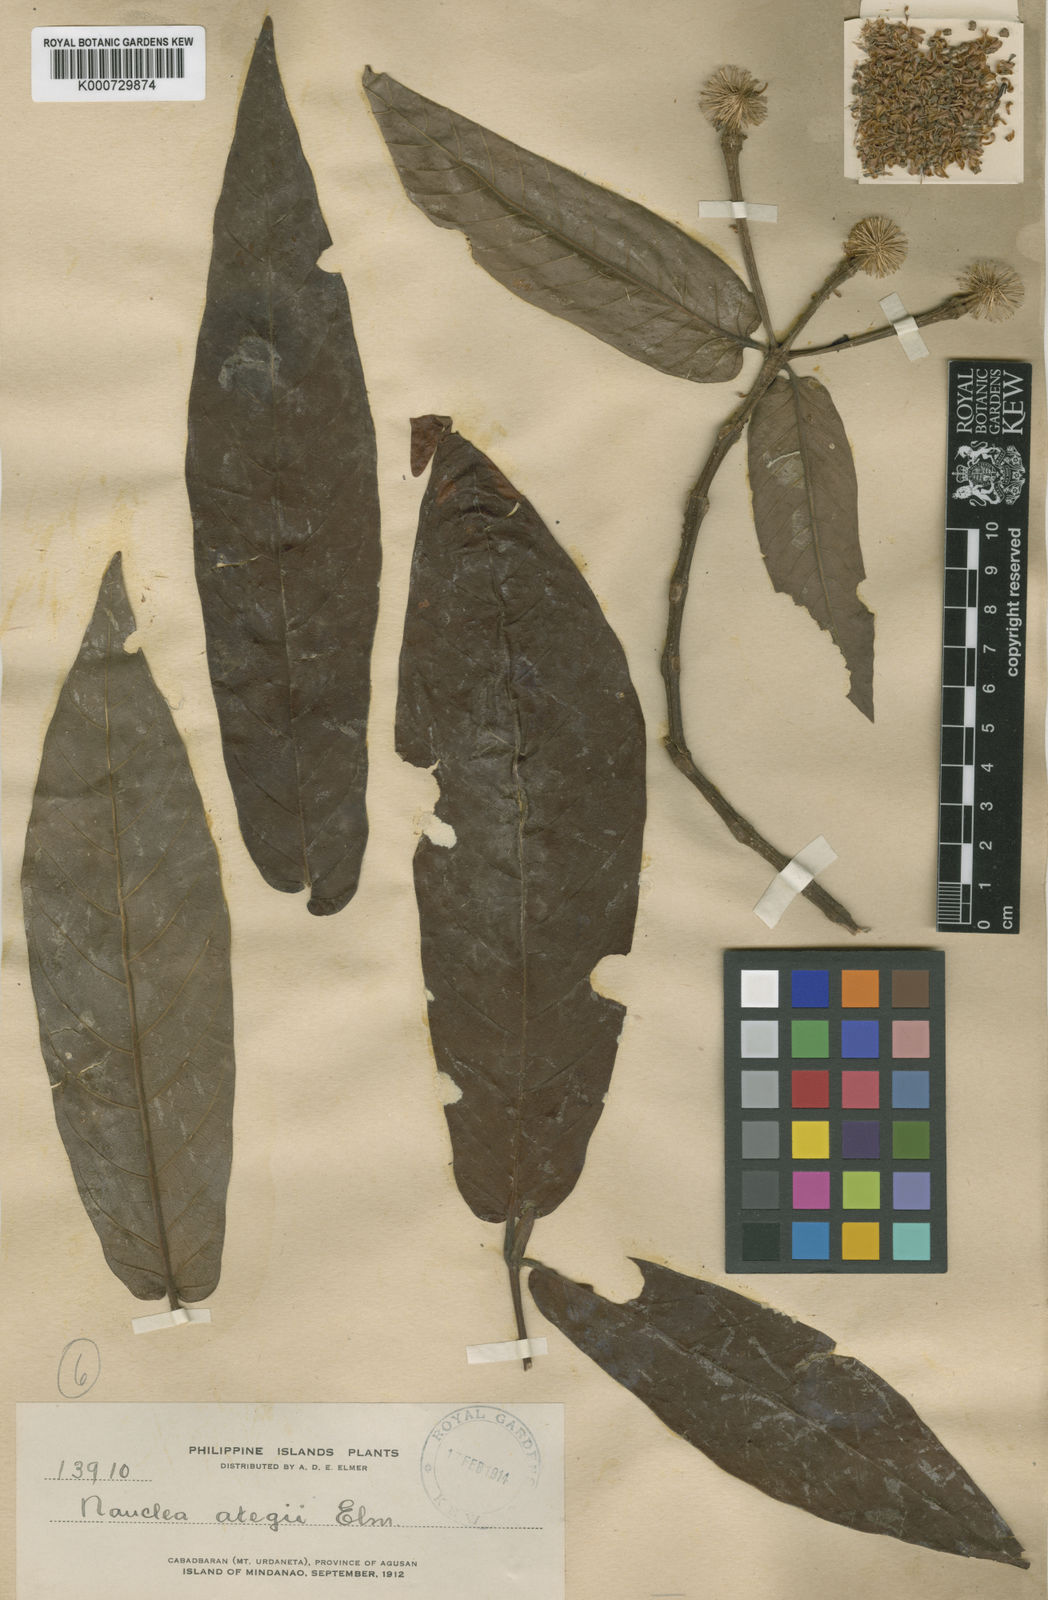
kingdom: Plantae
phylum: Tracheophyta
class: Magnoliopsida
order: Gentianales
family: Rubiaceae
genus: Neonauclea
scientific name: Neonauclea bartlingii
